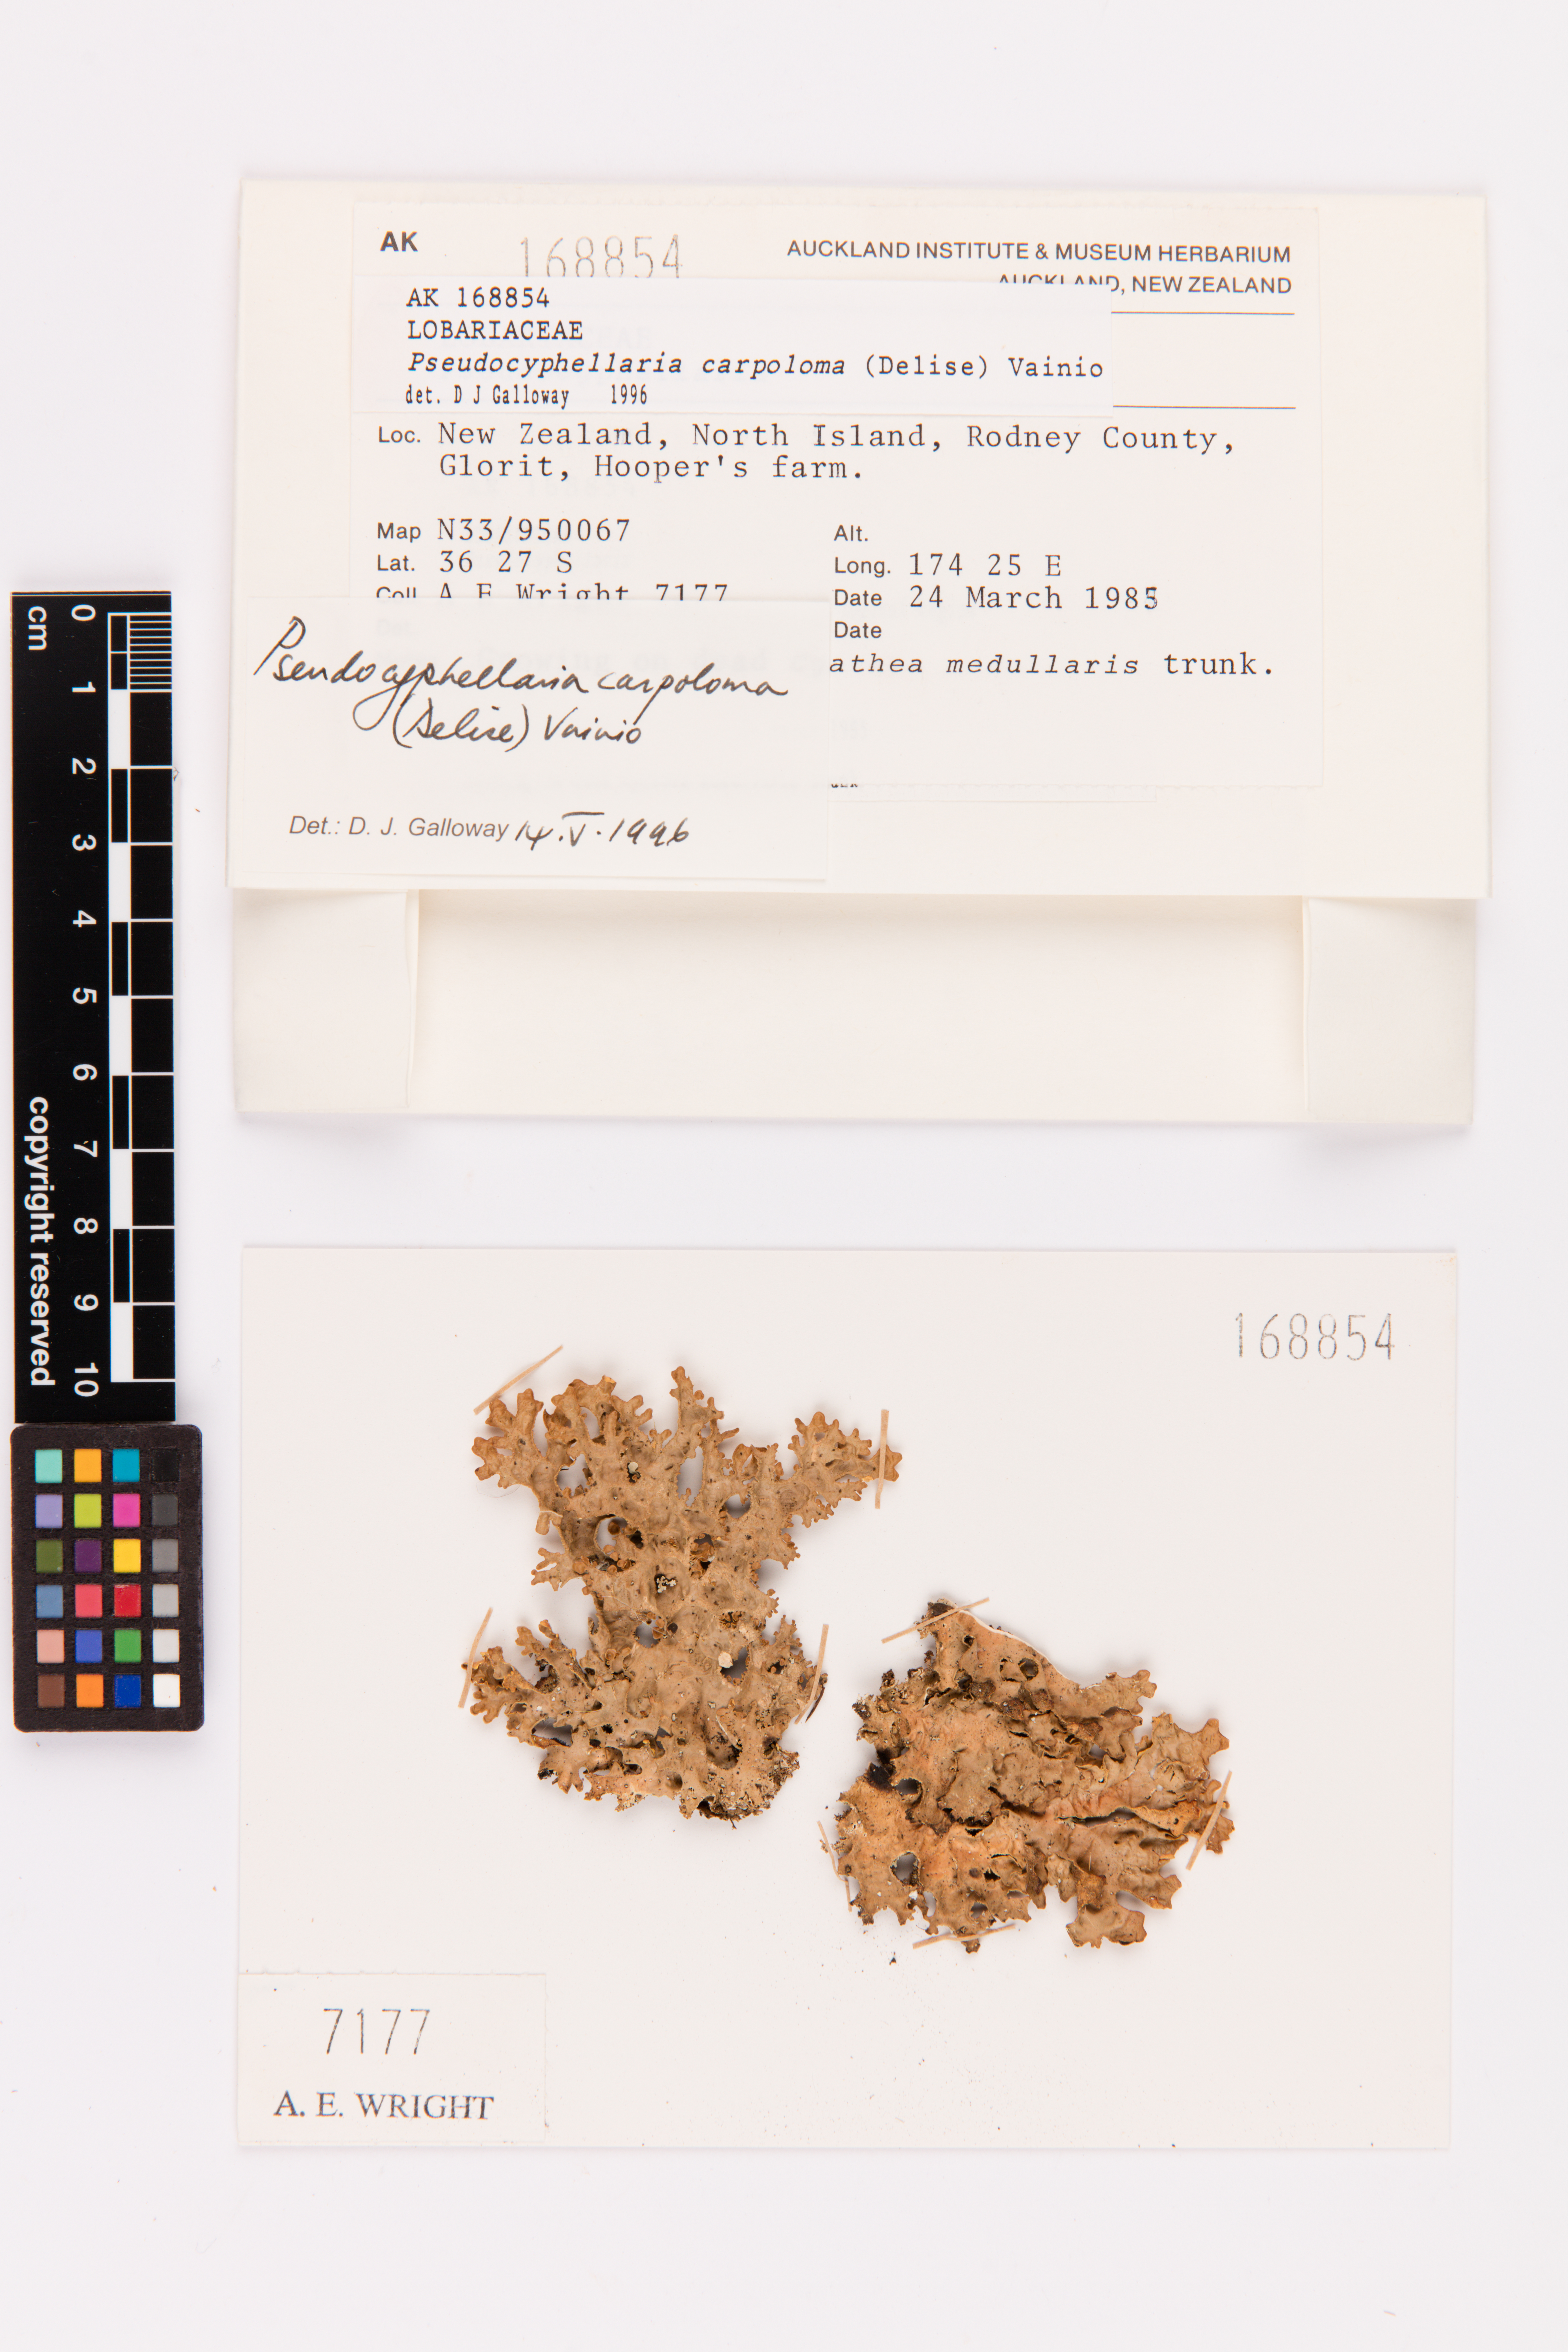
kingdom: Fungi
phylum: Ascomycota
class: Lecanoromycetes
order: Peltigerales
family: Lobariaceae
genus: Pseudocyphellaria
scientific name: Pseudocyphellaria carpoloma
